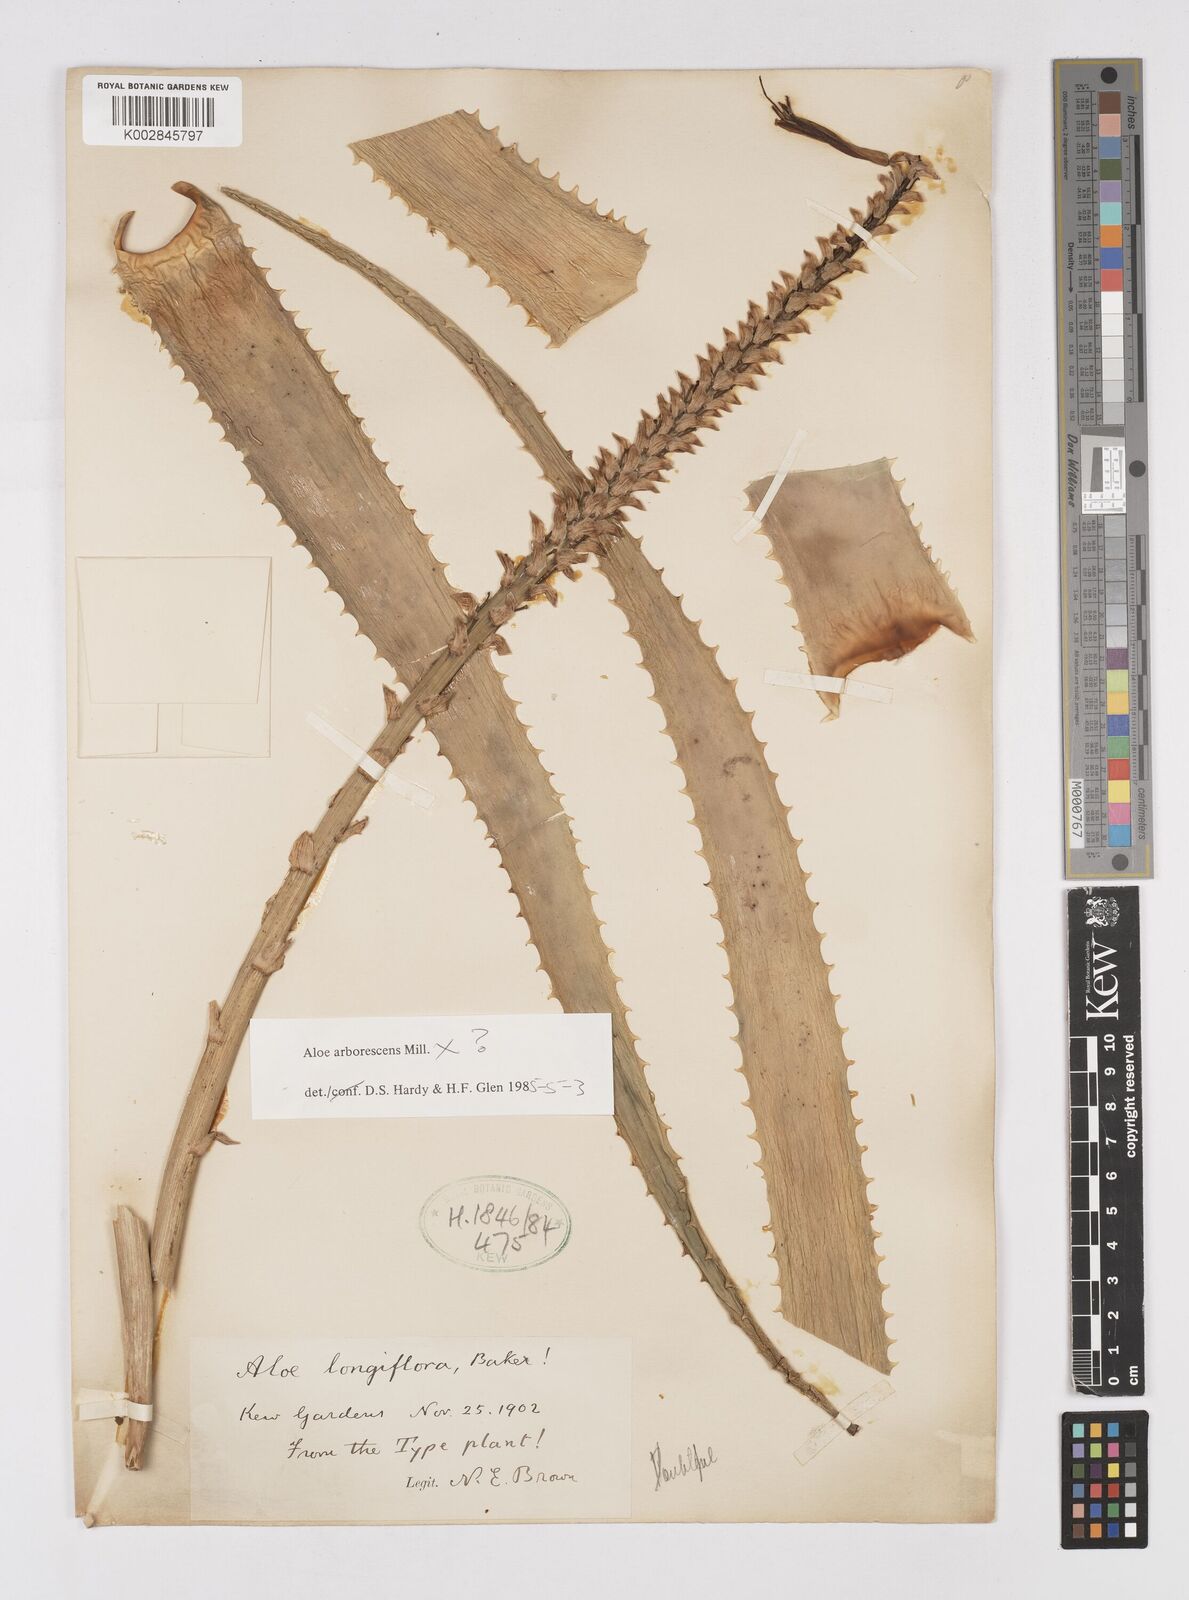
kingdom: Plantae
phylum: Tracheophyta
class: Liliopsida
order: Asparagales
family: Asphodelaceae
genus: Aloe
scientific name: Aloe arborescens
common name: Candelabra aloe
